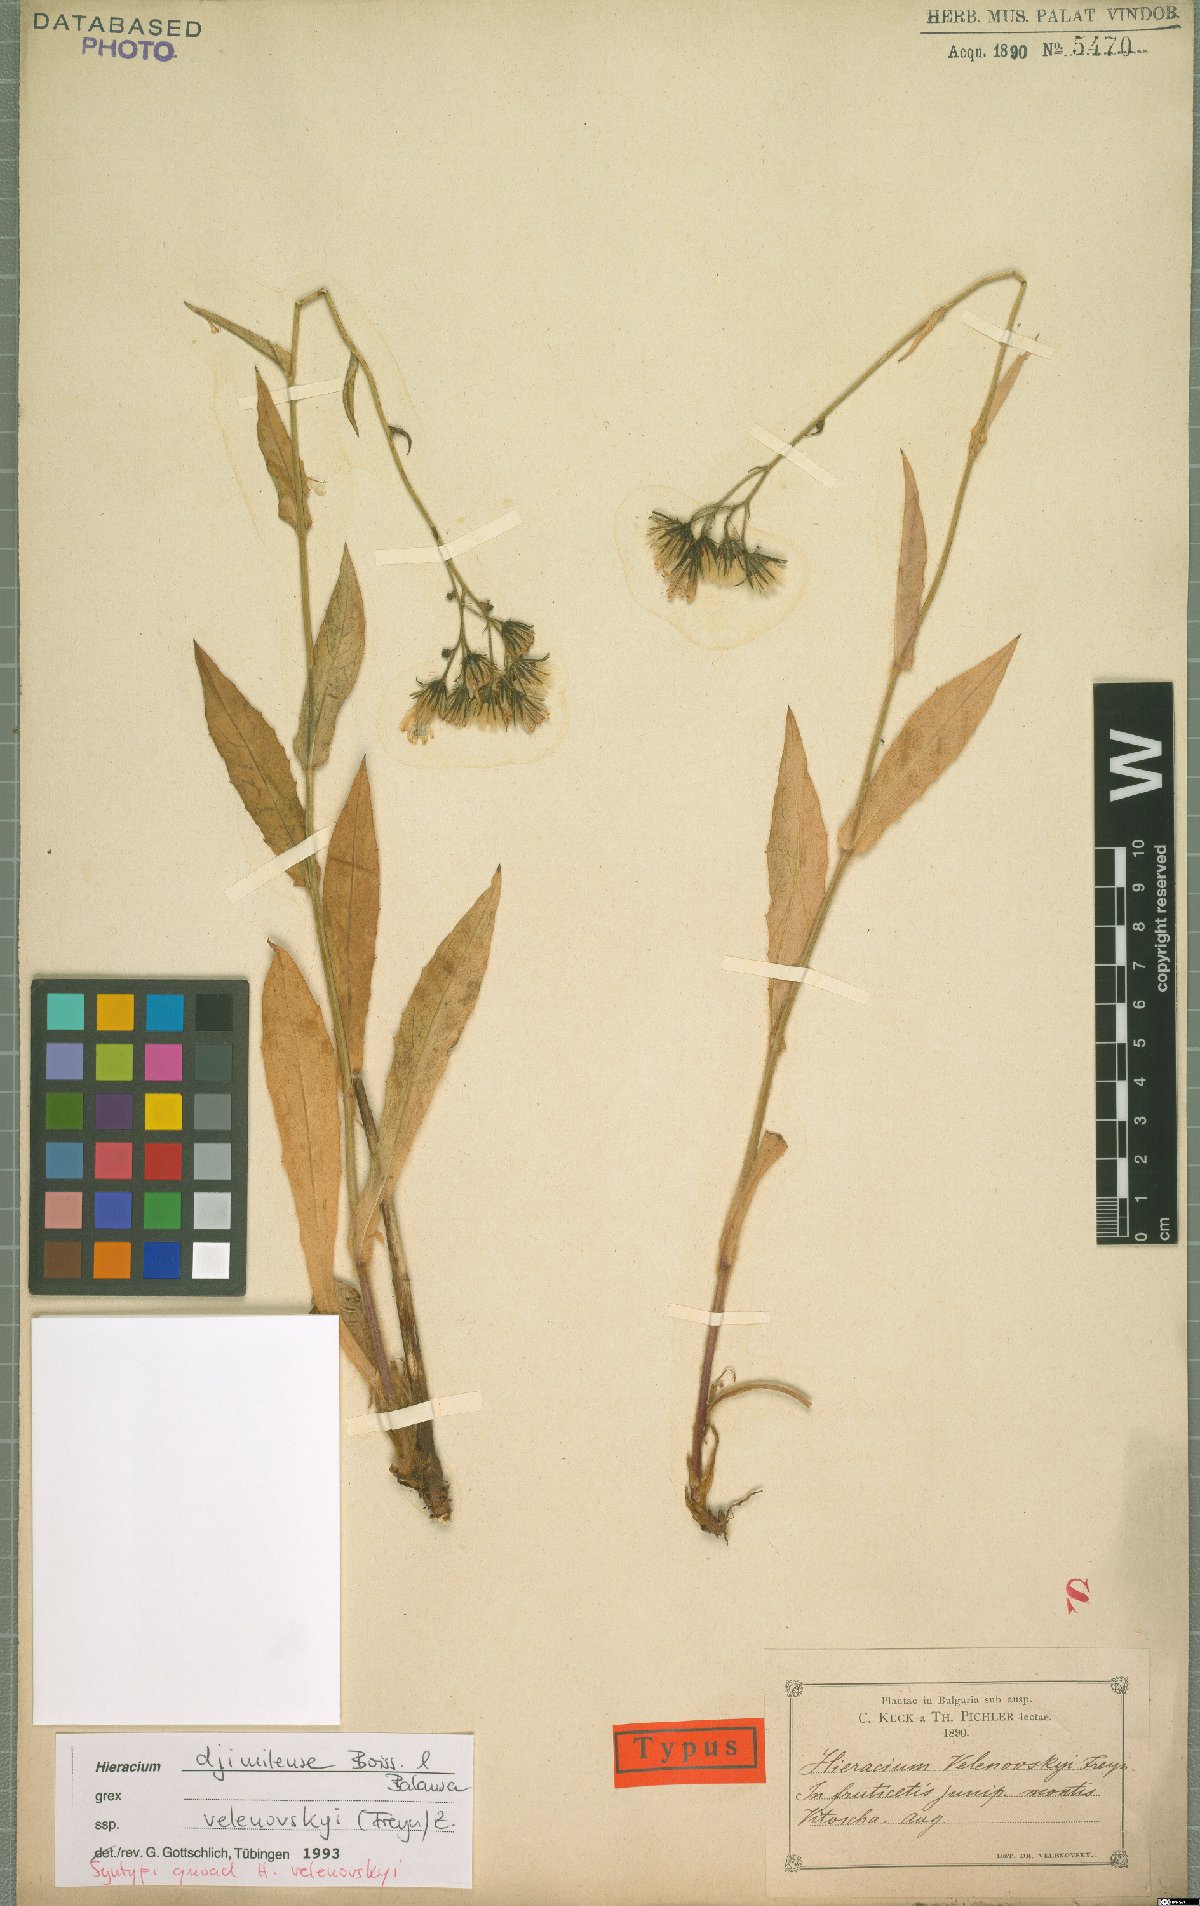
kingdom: Plantae
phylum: Tracheophyta
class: Magnoliopsida
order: Asterales
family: Asteraceae
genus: Hieracium
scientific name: Hieracium djimilense
